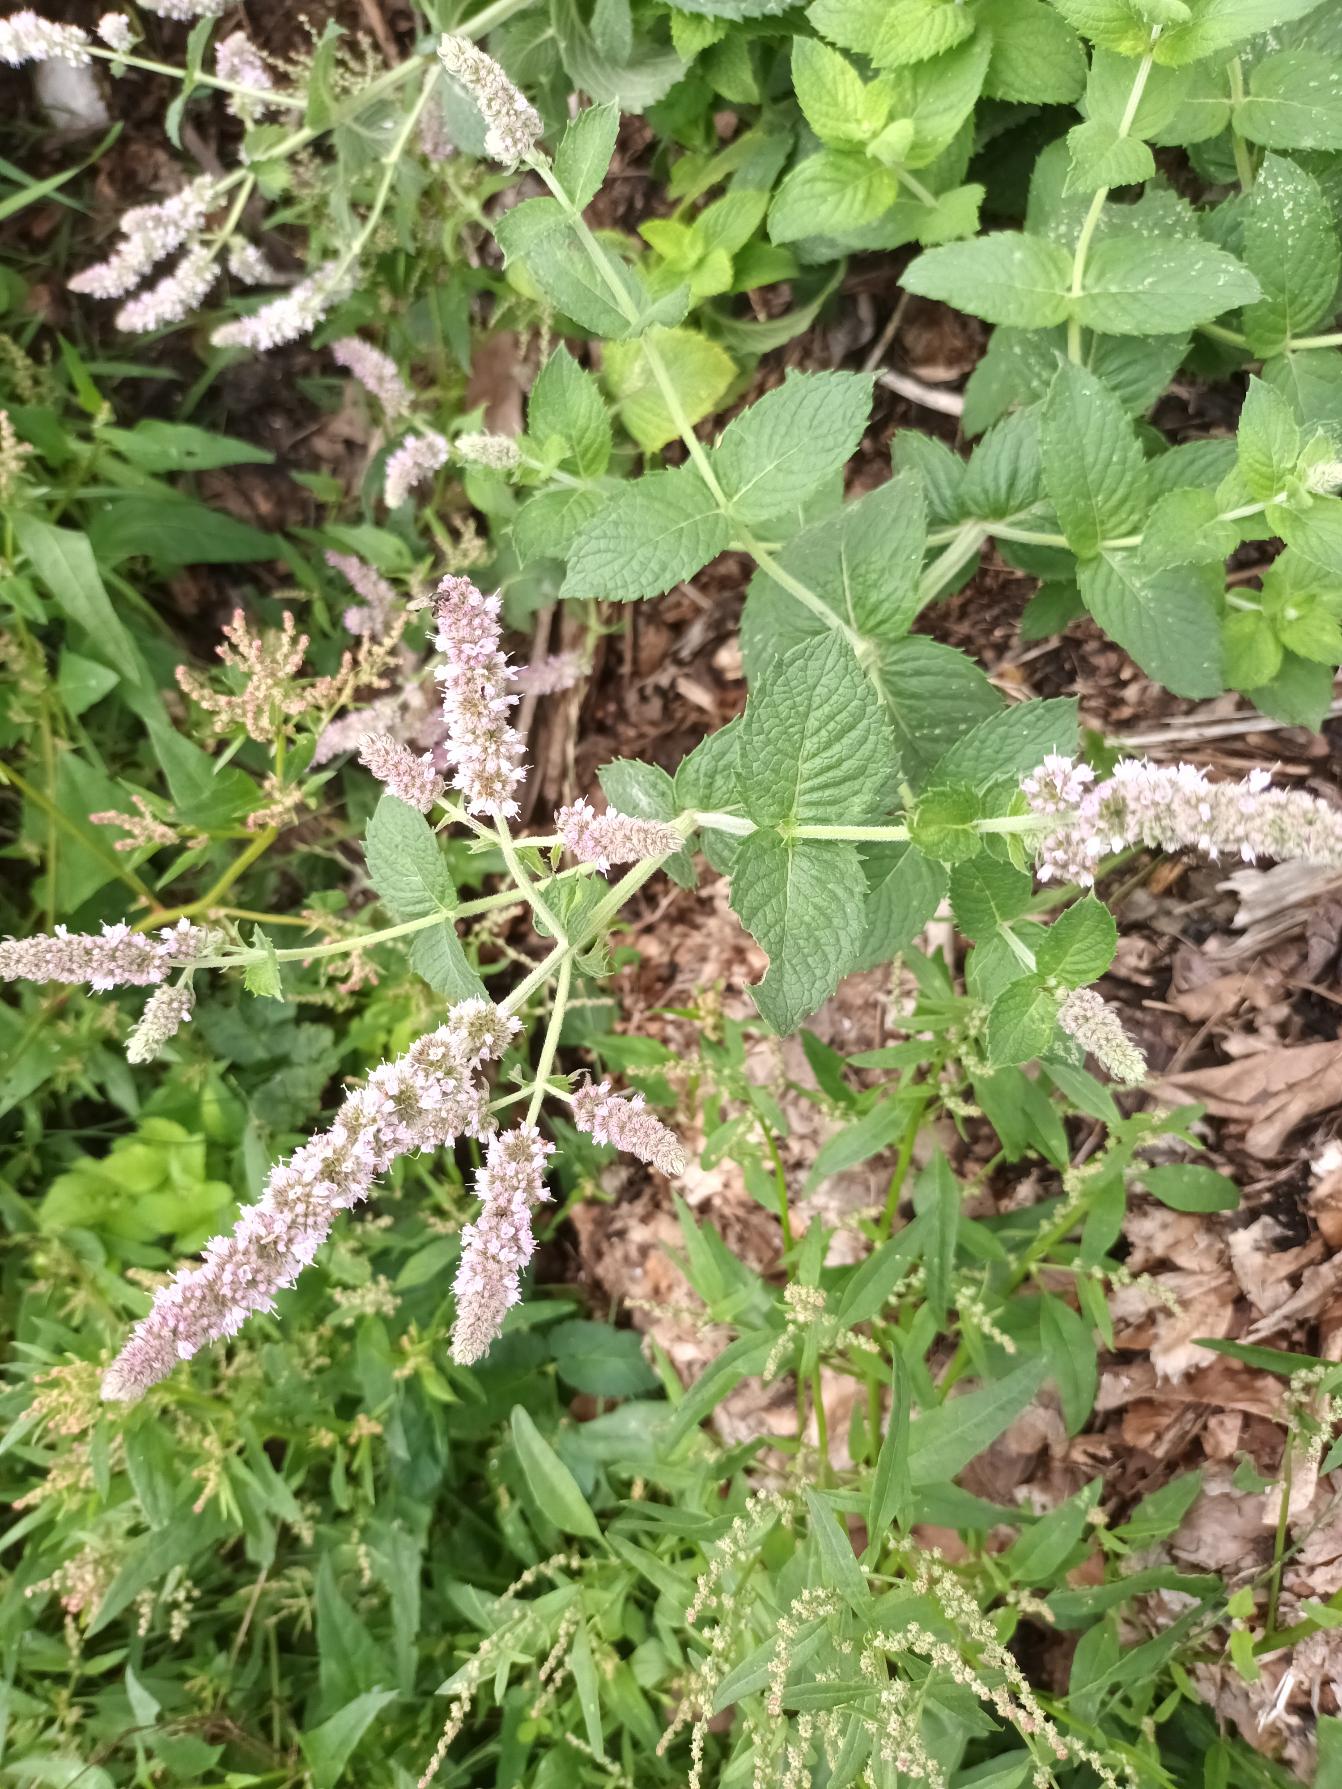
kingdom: Plantae
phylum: Tracheophyta
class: Magnoliopsida
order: Lamiales
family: Lamiaceae
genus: Mentha
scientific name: Mentha
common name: Grå mynte × grøn mynte
